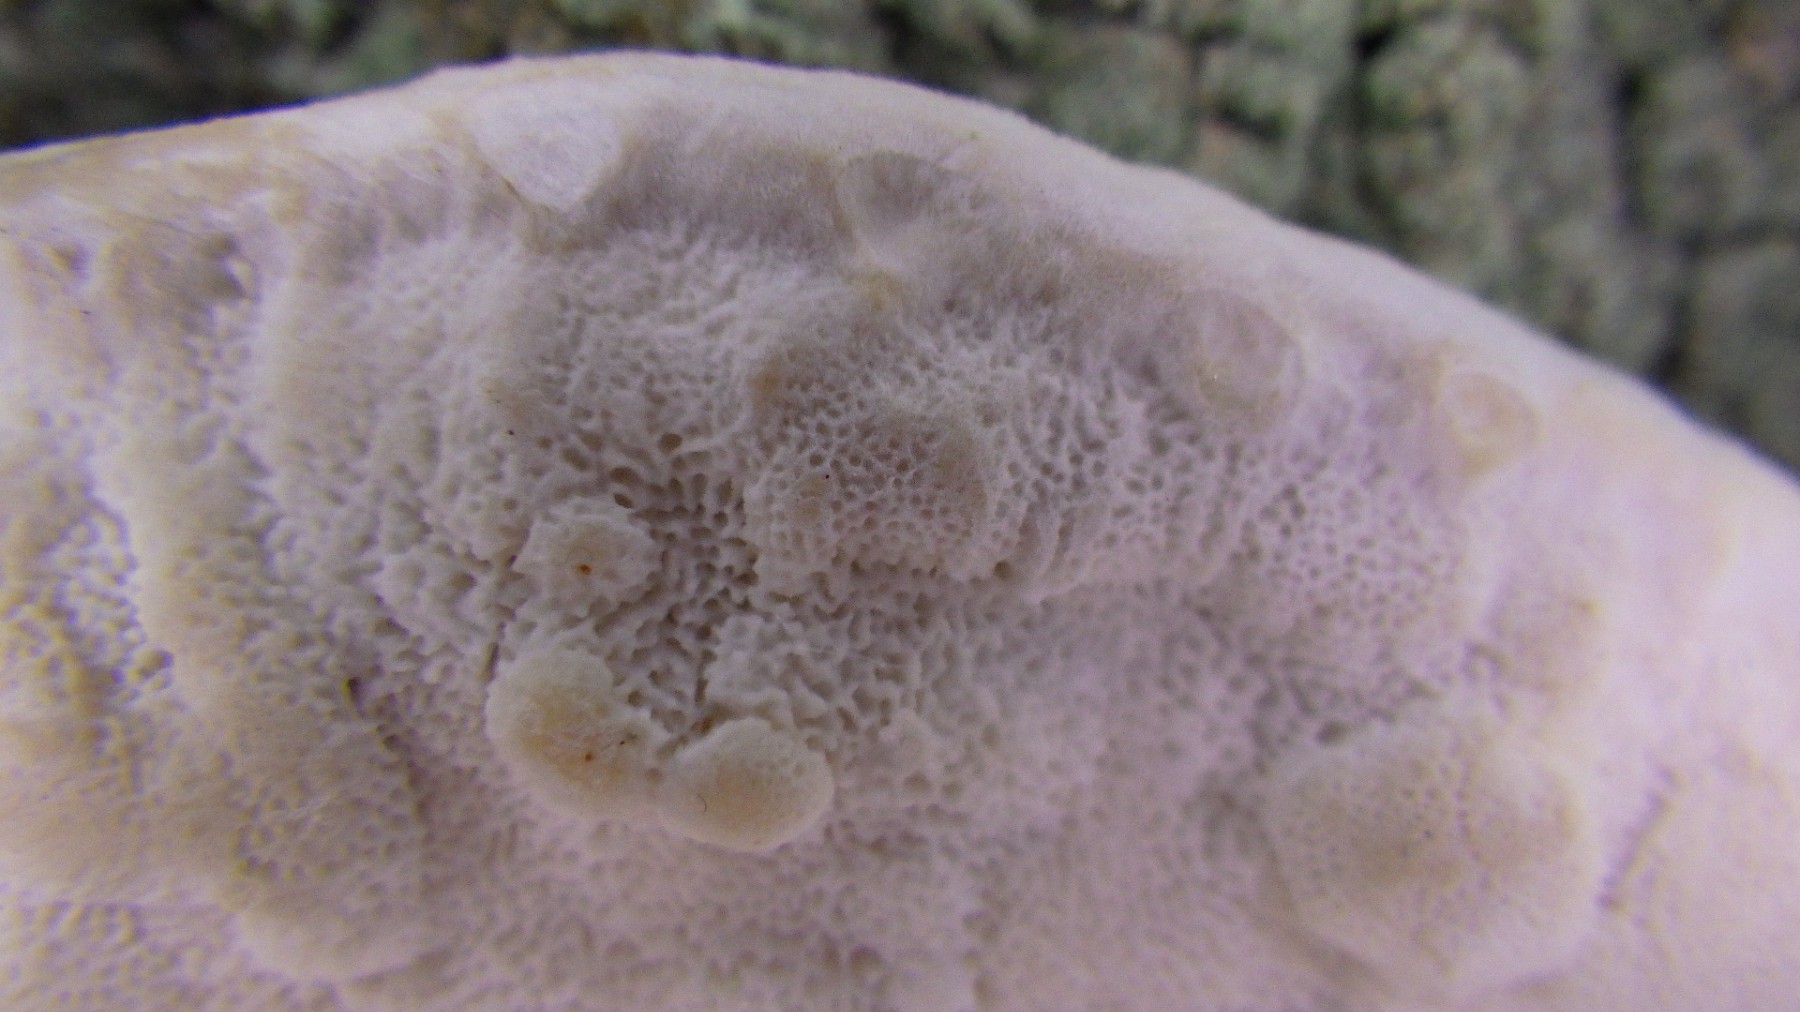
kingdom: Fungi
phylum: Basidiomycota
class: Agaricomycetes
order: Polyporales
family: Dacryobolaceae
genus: Postia
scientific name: Postia
